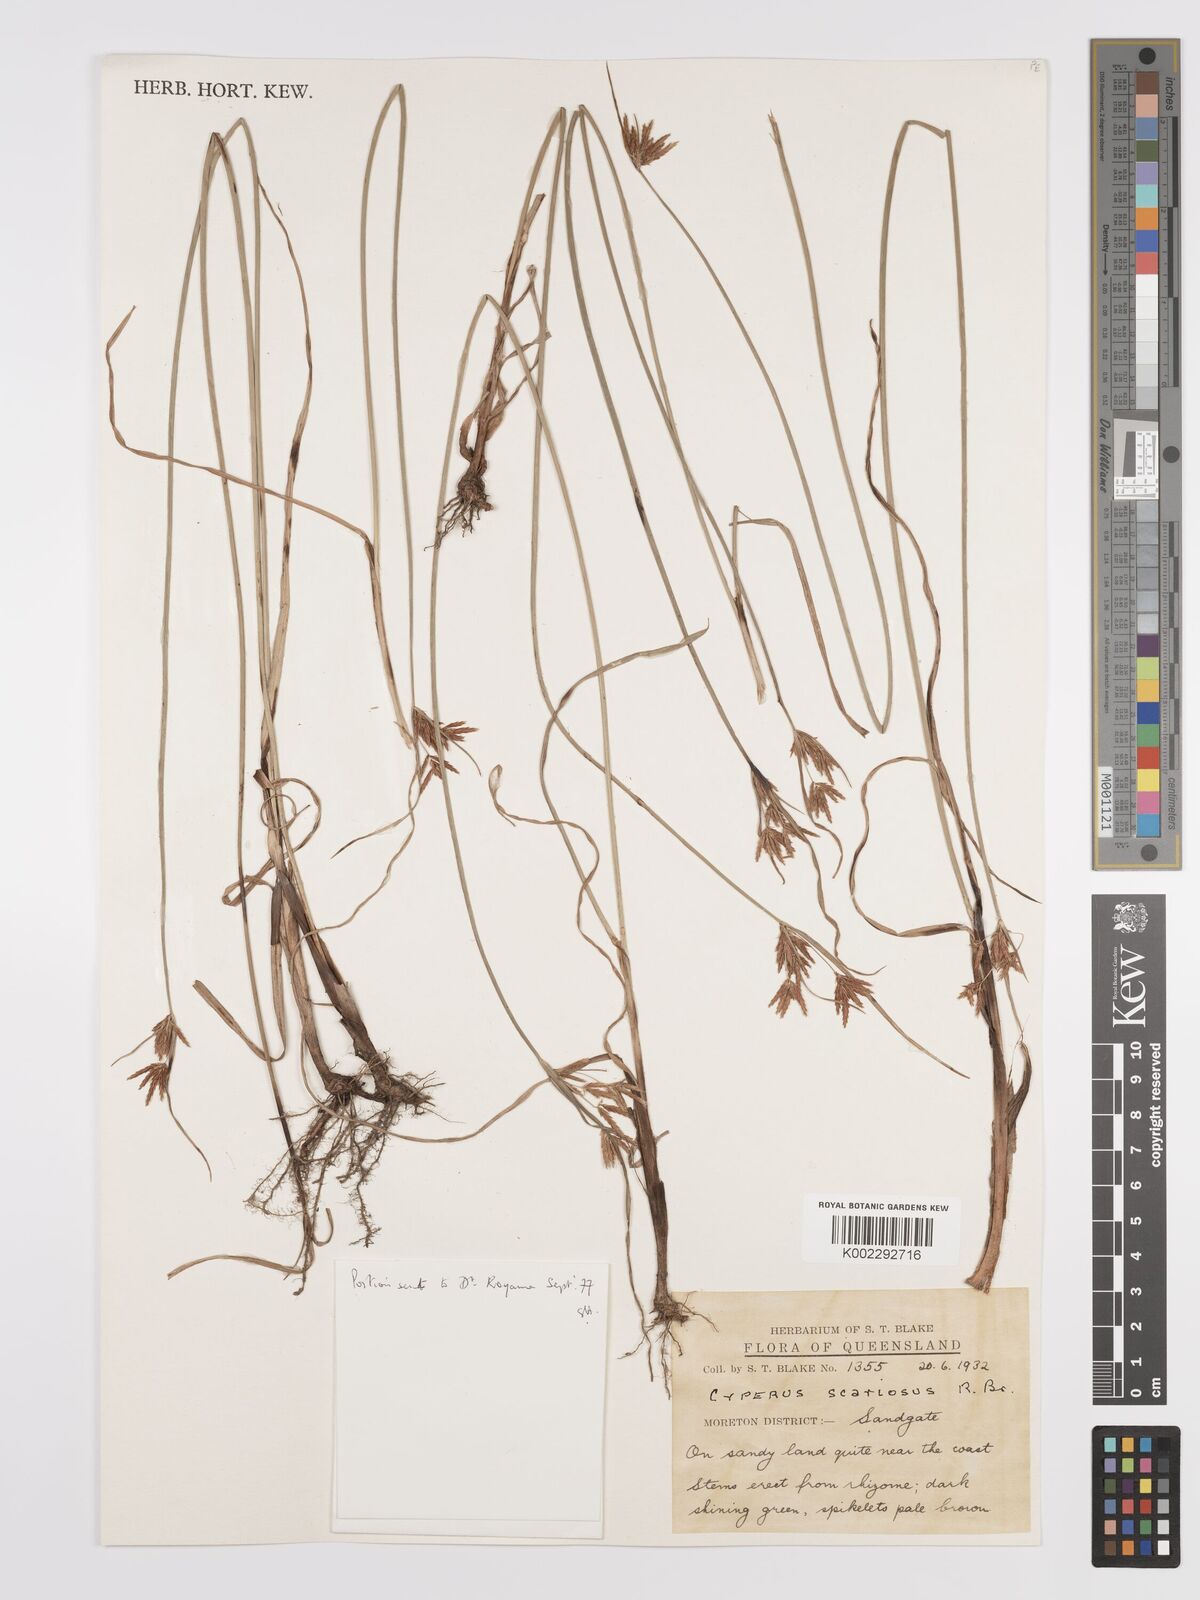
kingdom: Plantae
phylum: Tracheophyta
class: Liliopsida
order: Poales
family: Cyperaceae
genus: Cyperus
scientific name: Cyperus scariosus
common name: Cypriol
